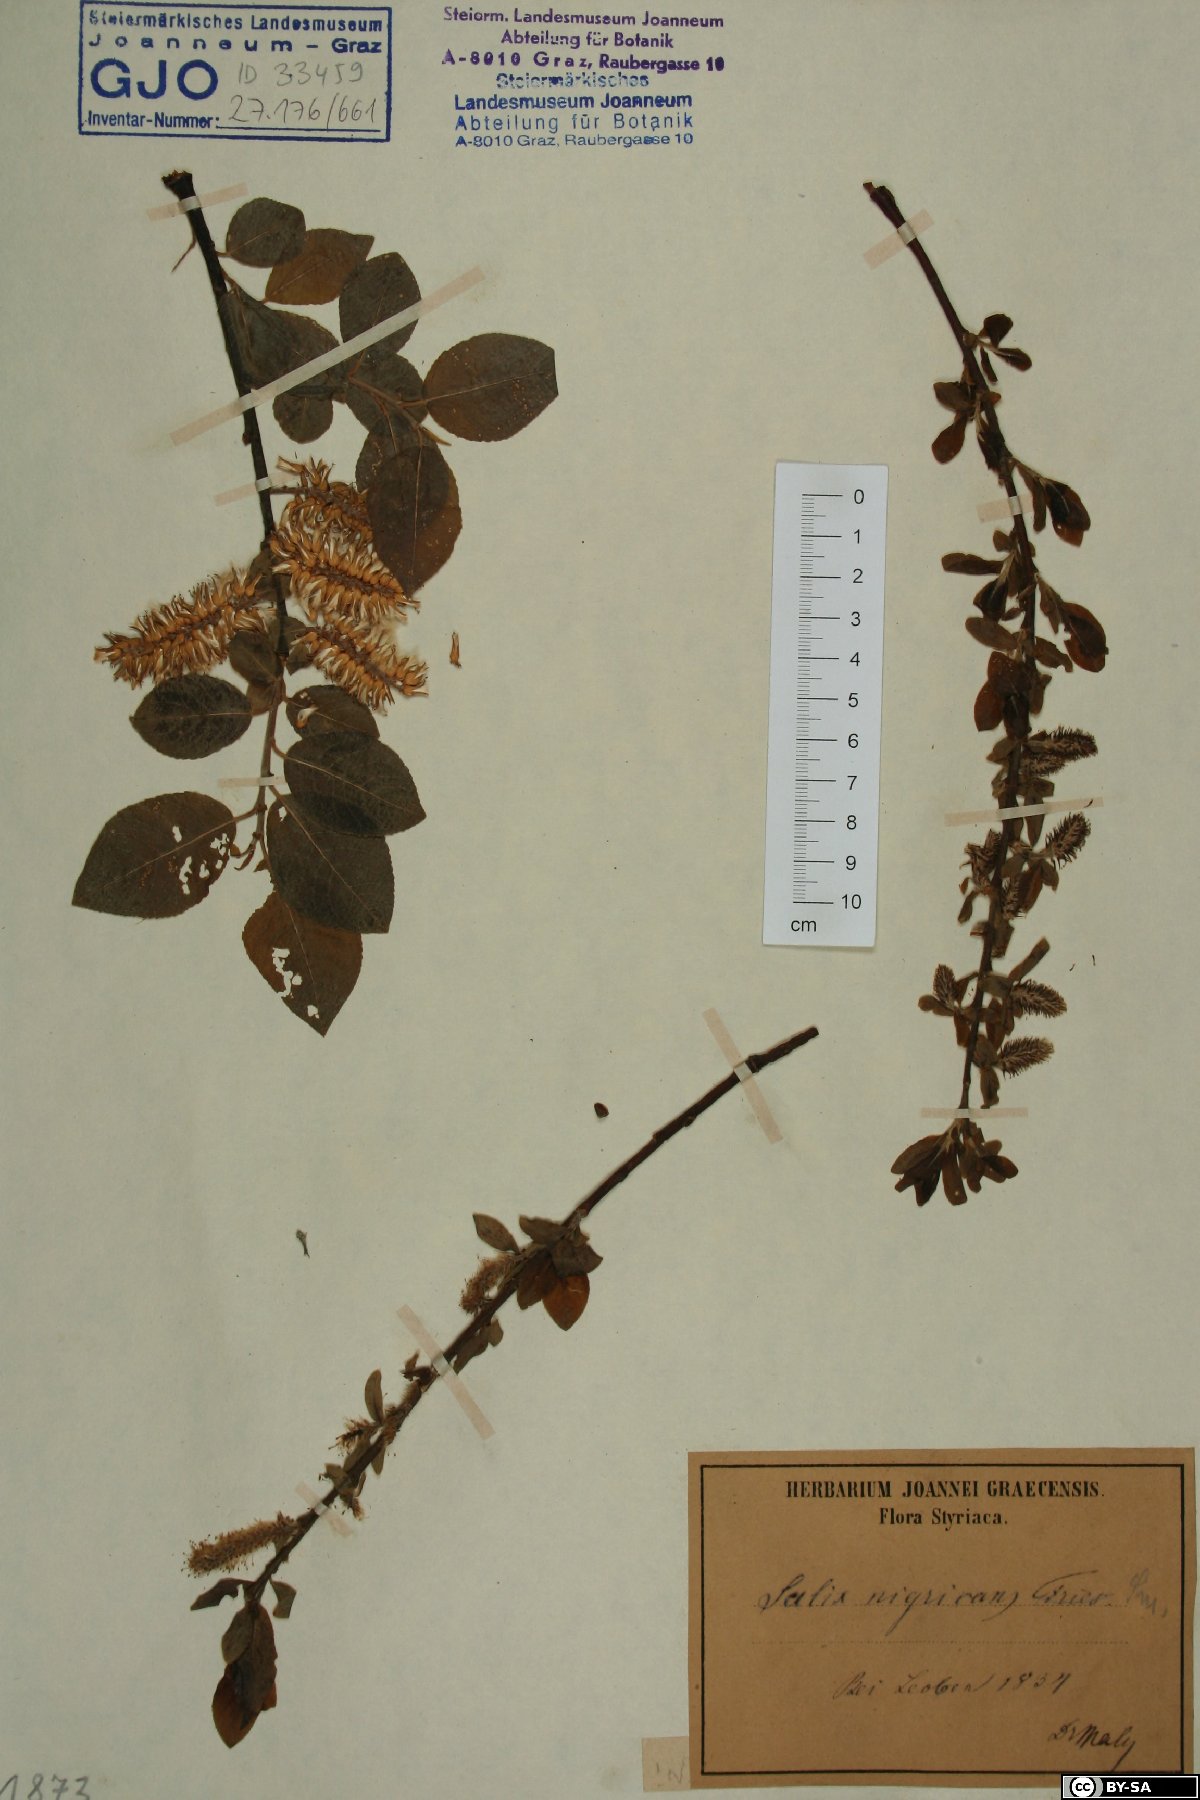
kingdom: Plantae
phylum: Tracheophyta
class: Magnoliopsida
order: Malpighiales
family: Salicaceae
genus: Salix
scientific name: Salix myrsinifolia
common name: Dark-leaved willow
